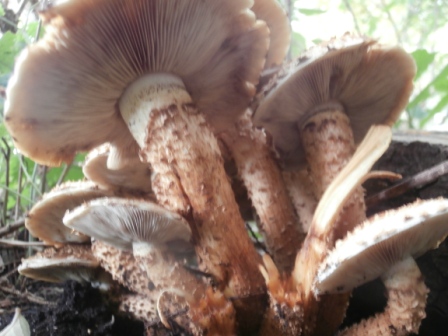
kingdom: Fungi
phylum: Basidiomycota
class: Agaricomycetes
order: Agaricales
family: Strophariaceae
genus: Pholiota
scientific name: Pholiota squarrosa
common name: krumskællet skælhat
